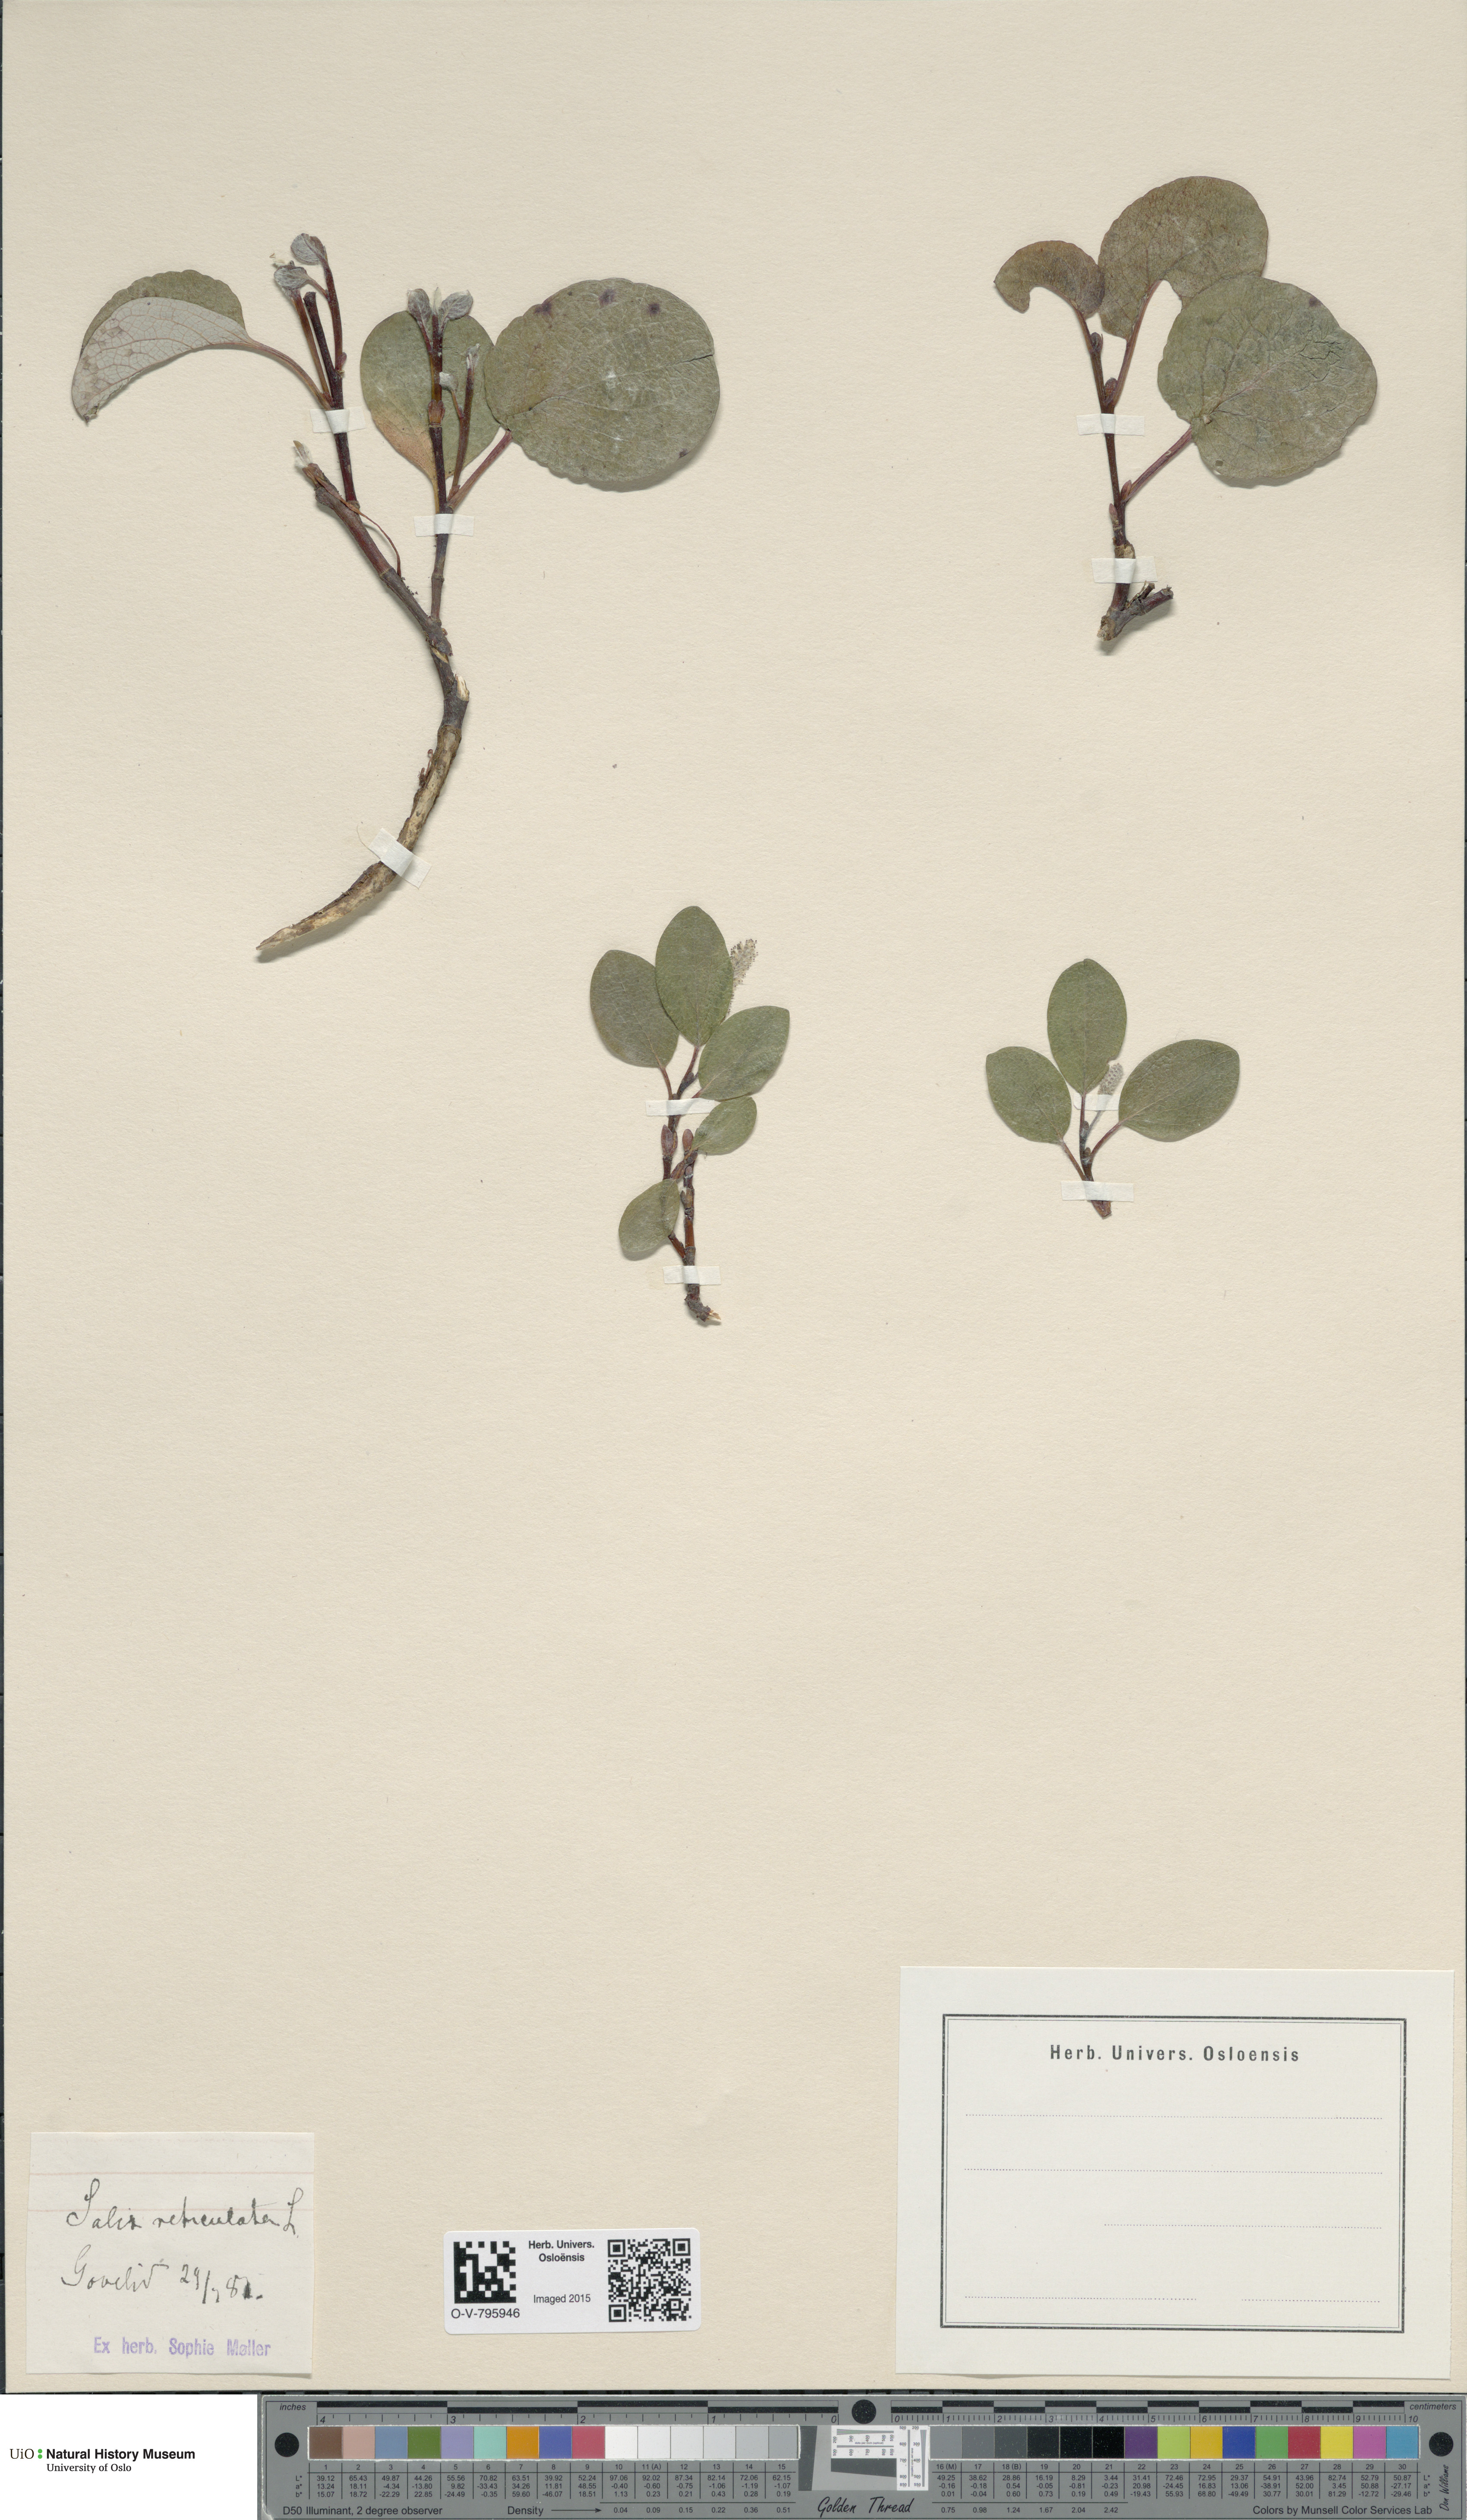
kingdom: Plantae
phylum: Tracheophyta
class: Magnoliopsida
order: Malpighiales
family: Salicaceae
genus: Salix
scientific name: Salix reticulata
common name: Net-leaved willow
